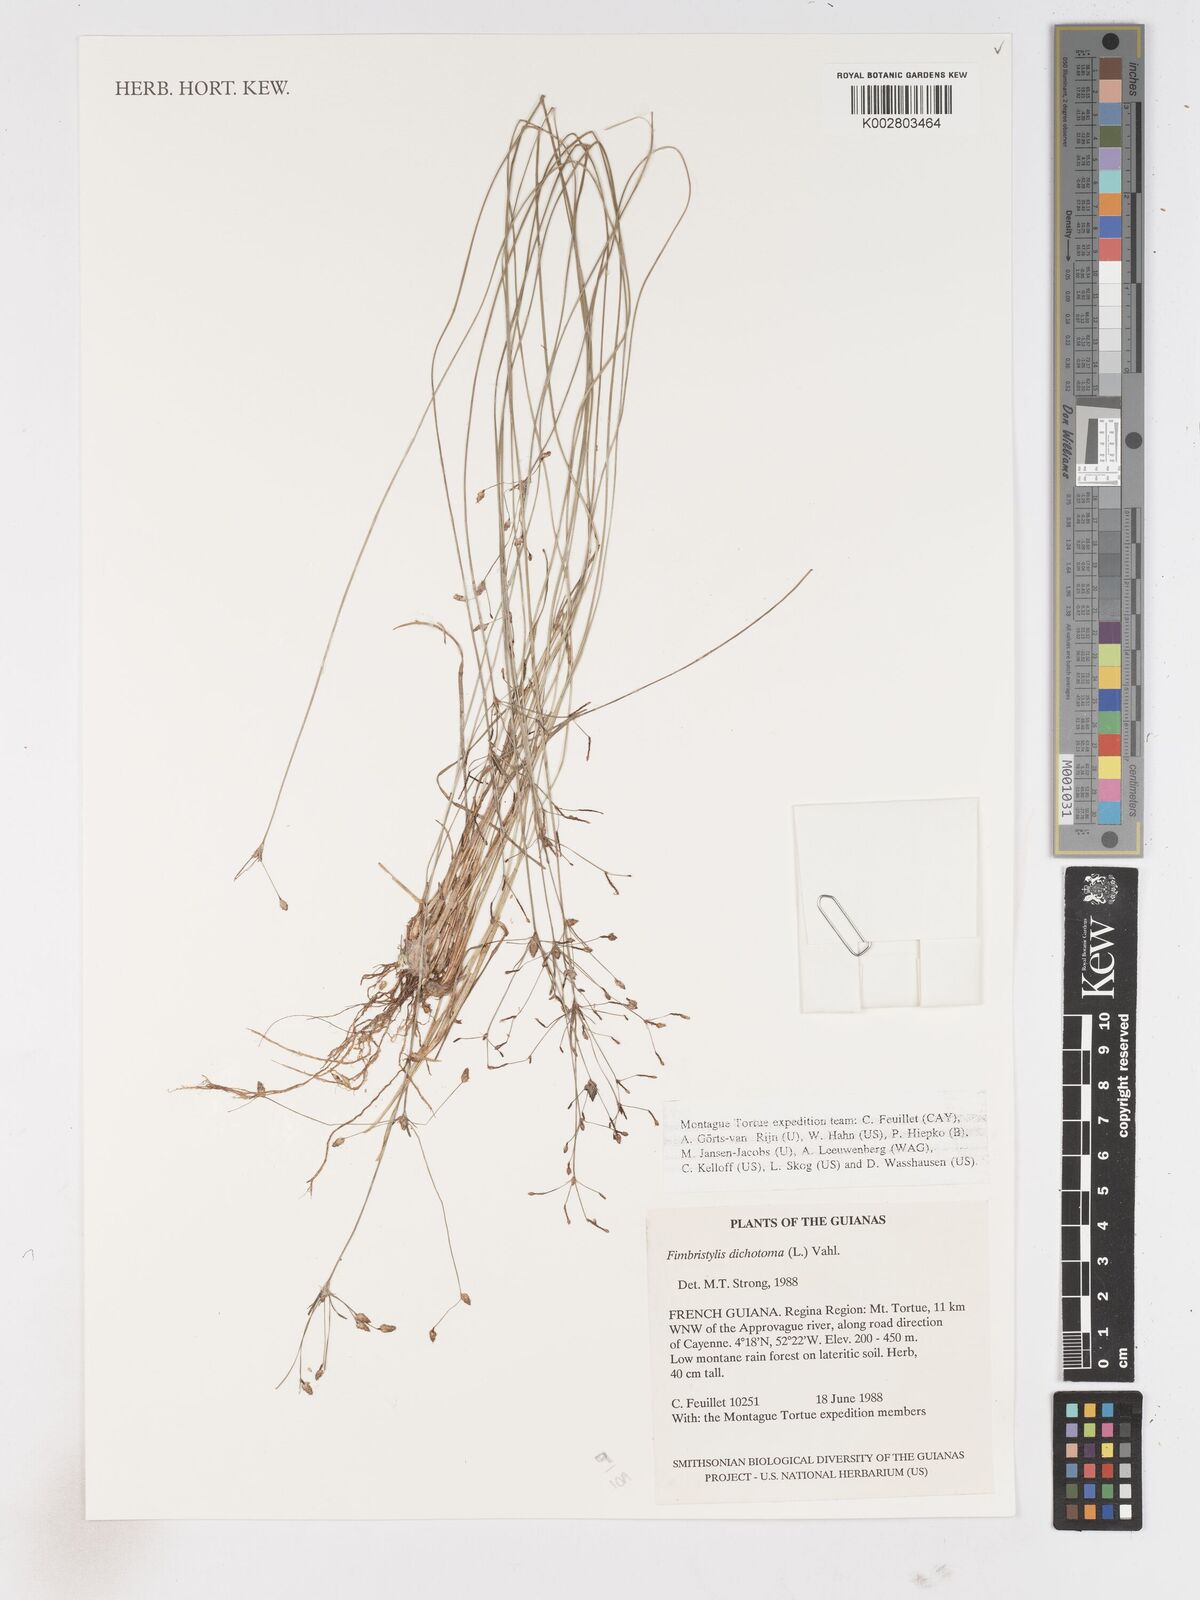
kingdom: Plantae
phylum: Tracheophyta
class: Liliopsida
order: Poales
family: Cyperaceae
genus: Fimbristylis
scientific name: Fimbristylis dichotoma
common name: Forked fimbry
